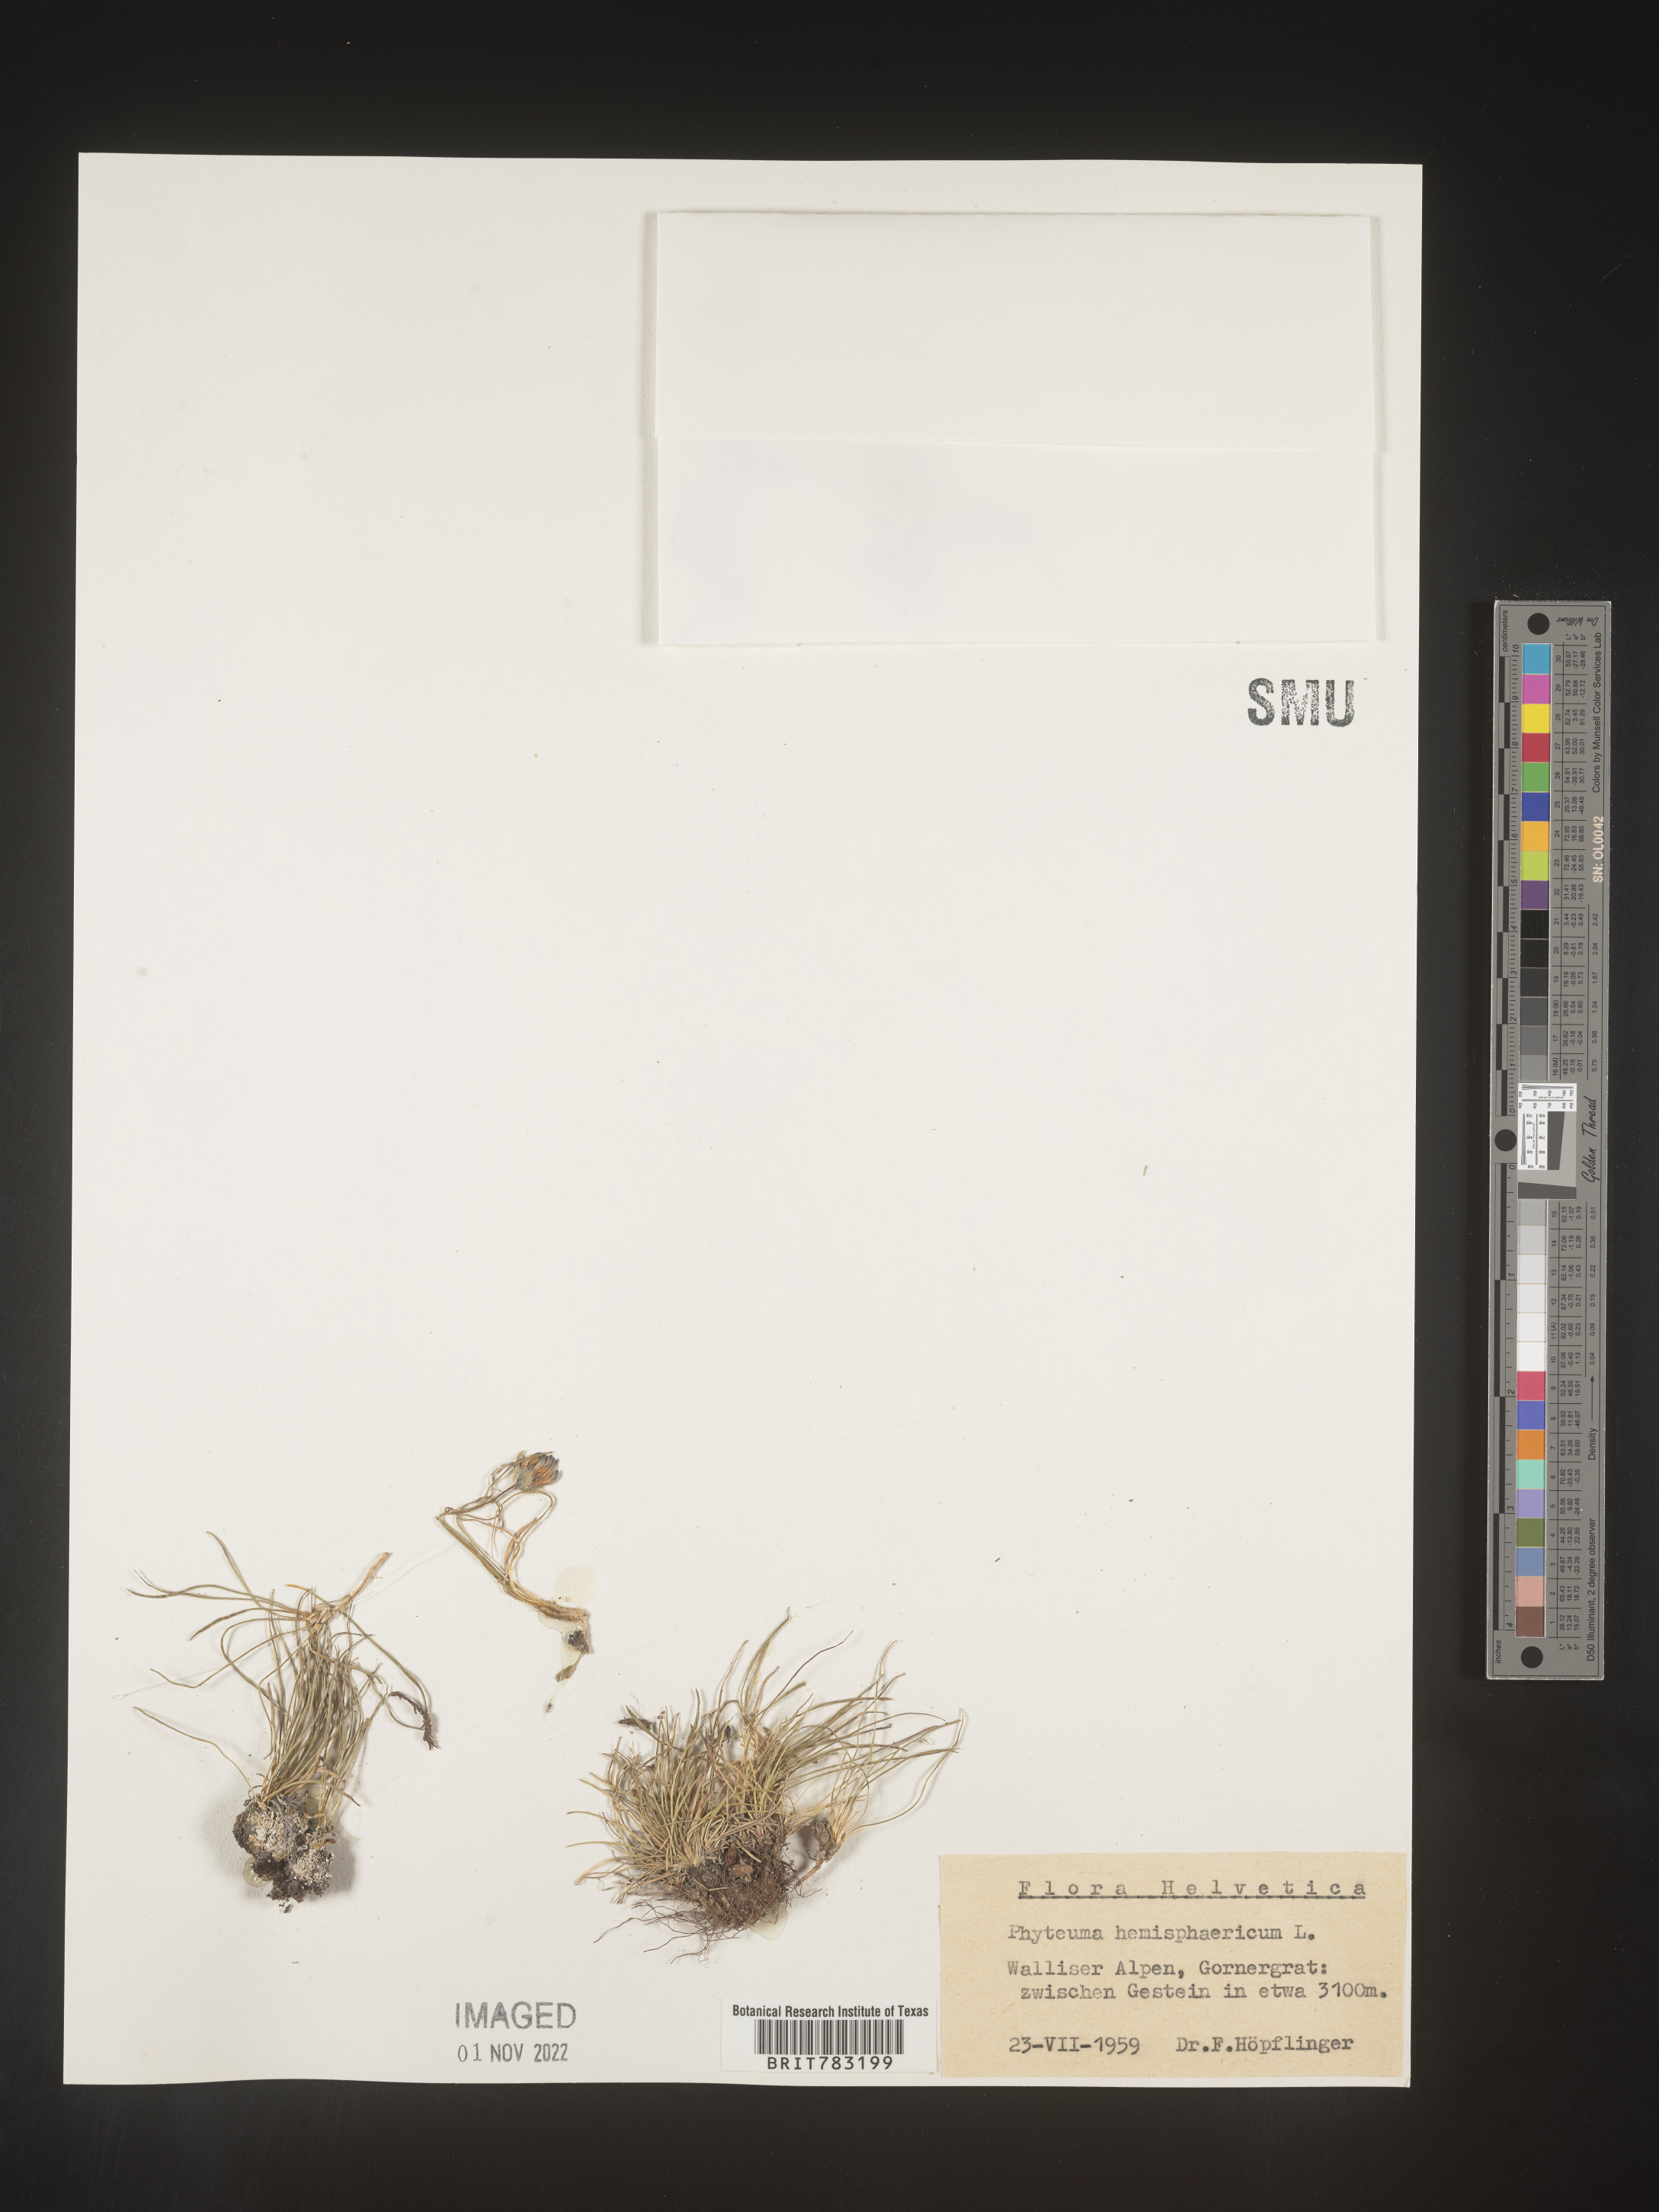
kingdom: Plantae
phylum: Tracheophyta
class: Magnoliopsida
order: Asterales
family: Campanulaceae
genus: Phyteuma
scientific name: Phyteuma
